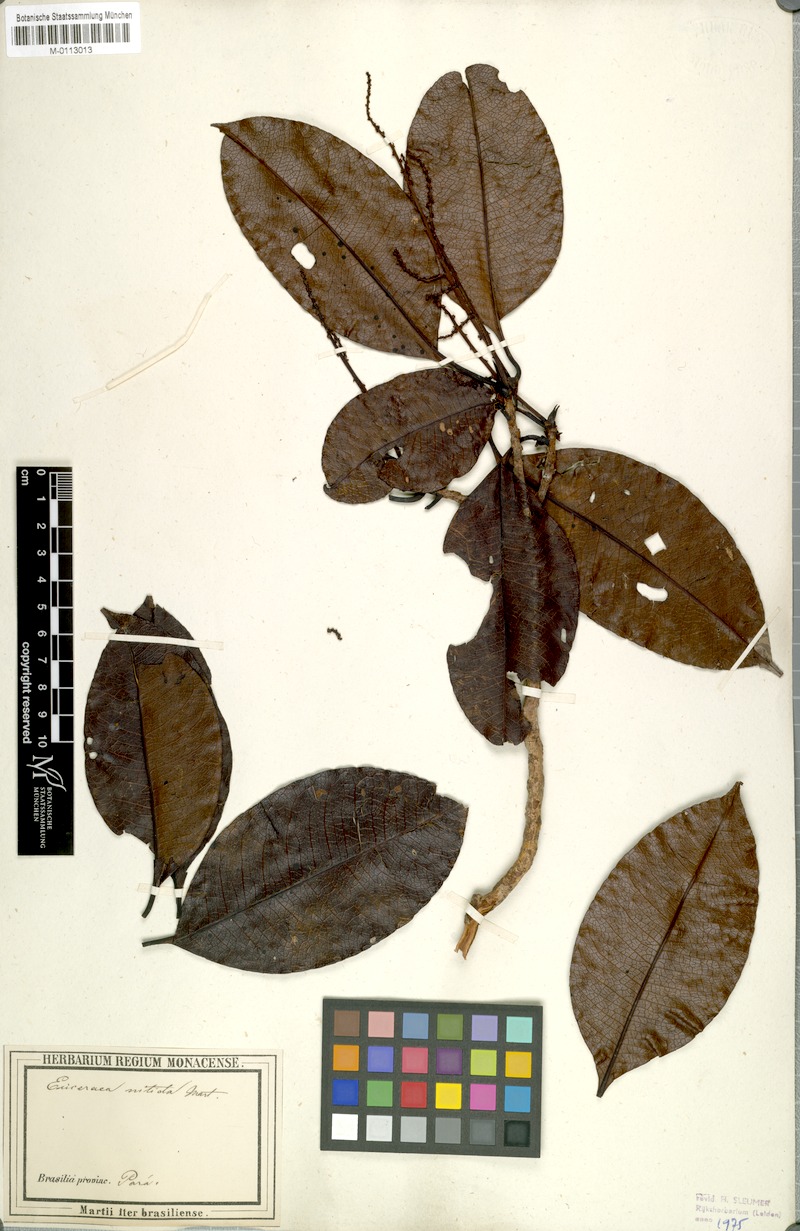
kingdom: Plantae
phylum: Tracheophyta
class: Magnoliopsida
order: Malpighiales
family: Salicaceae
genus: Casearia
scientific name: Casearia euceraea
